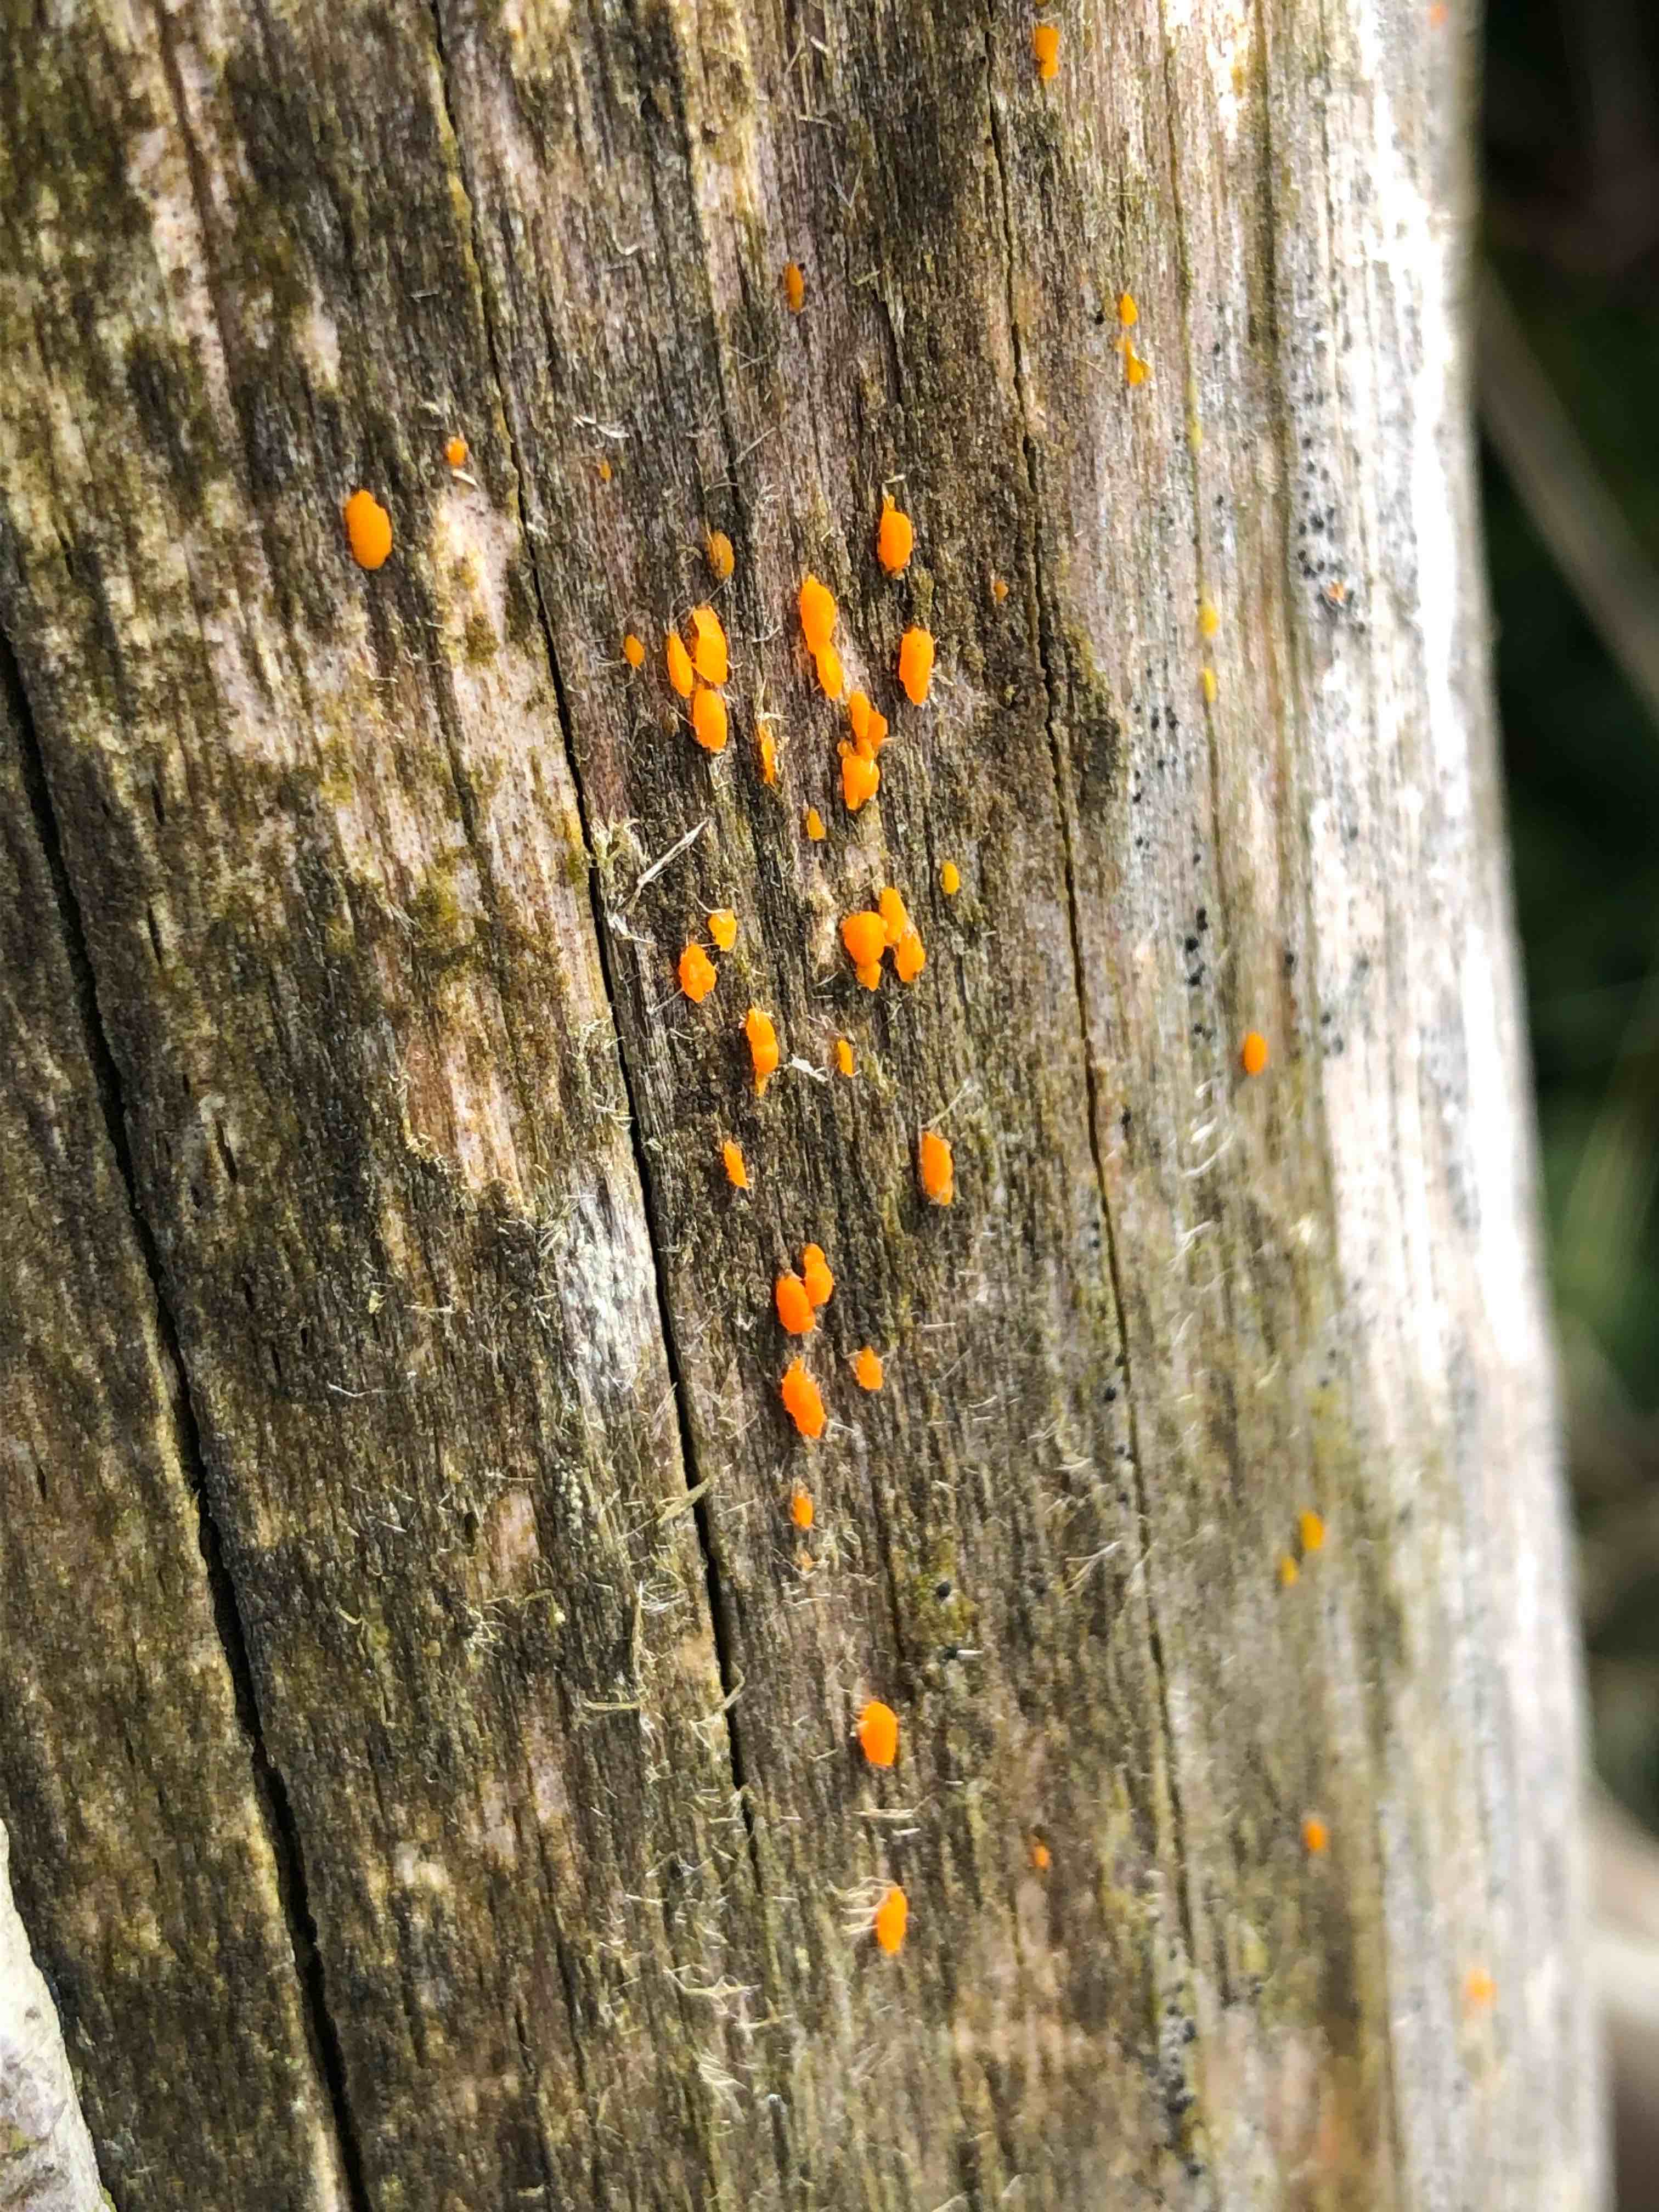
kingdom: Fungi
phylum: Basidiomycota
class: Dacrymycetes
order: Dacrymycetales
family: Dacrymycetaceae
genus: Dacrymyces
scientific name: Dacrymyces stillatus
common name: almindelig tåresvamp
